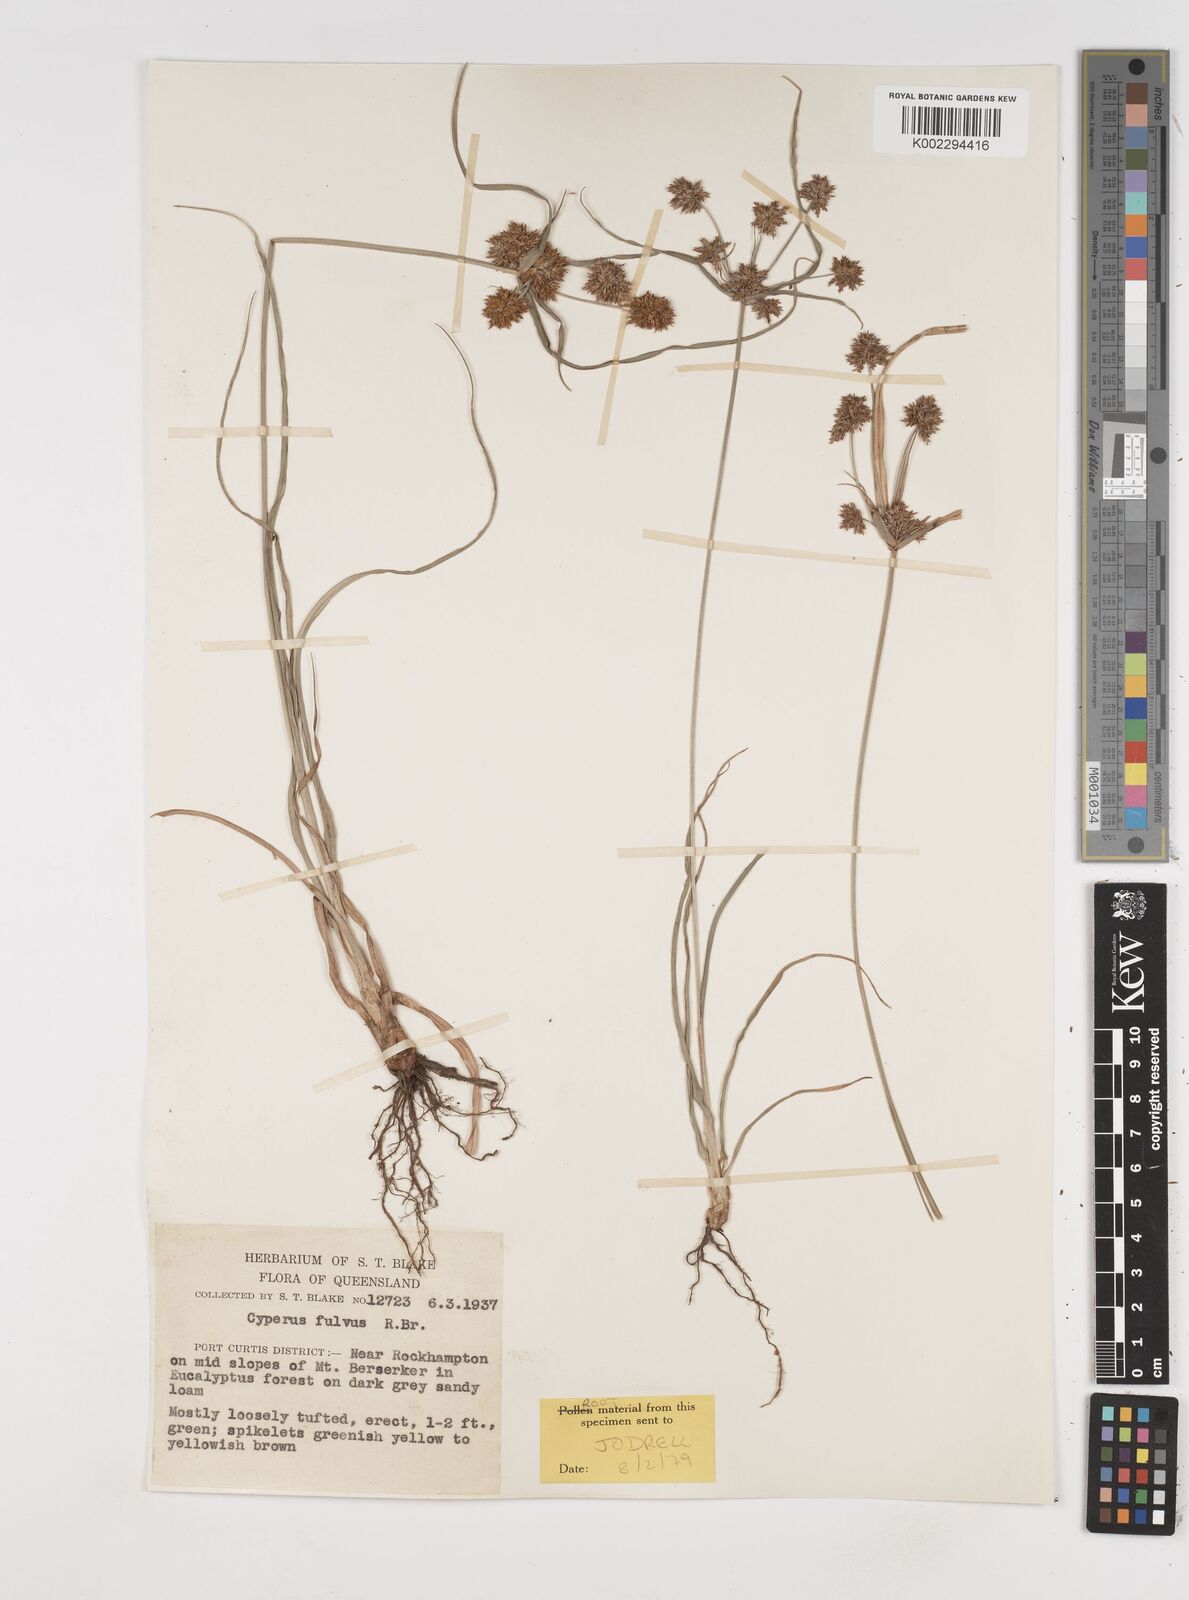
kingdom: Plantae
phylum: Tracheophyta
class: Liliopsida
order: Poales
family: Cyperaceae
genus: Cyperus
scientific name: Cyperus fulvus
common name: Sticky sedge
